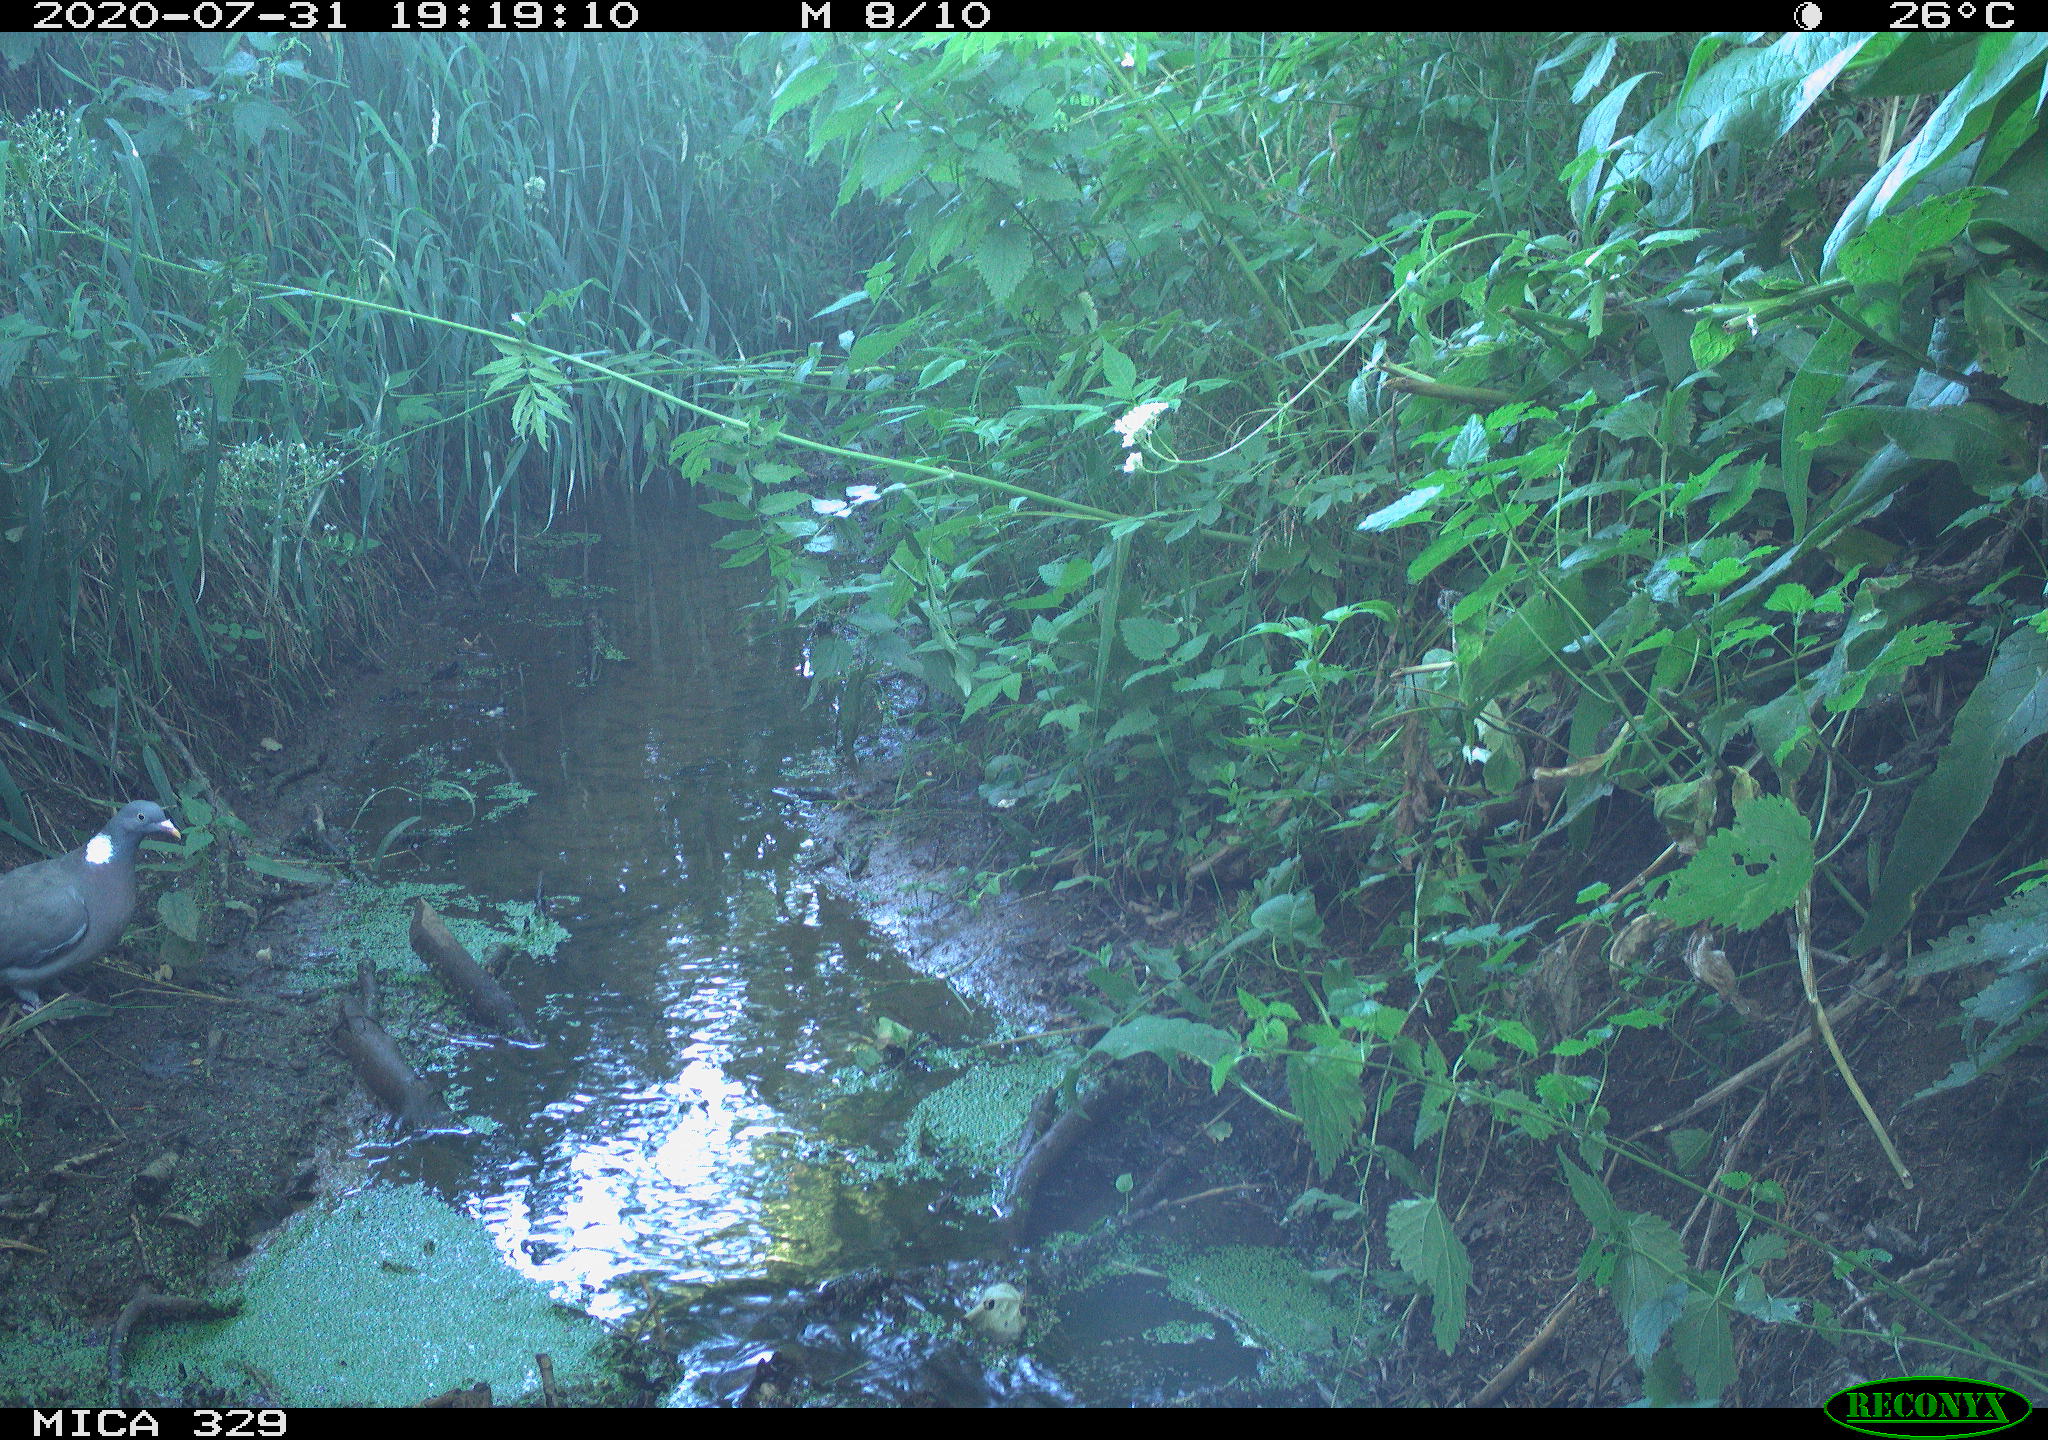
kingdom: Animalia
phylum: Chordata
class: Aves
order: Columbiformes
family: Columbidae
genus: Columba
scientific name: Columba palumbus
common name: Common wood pigeon
